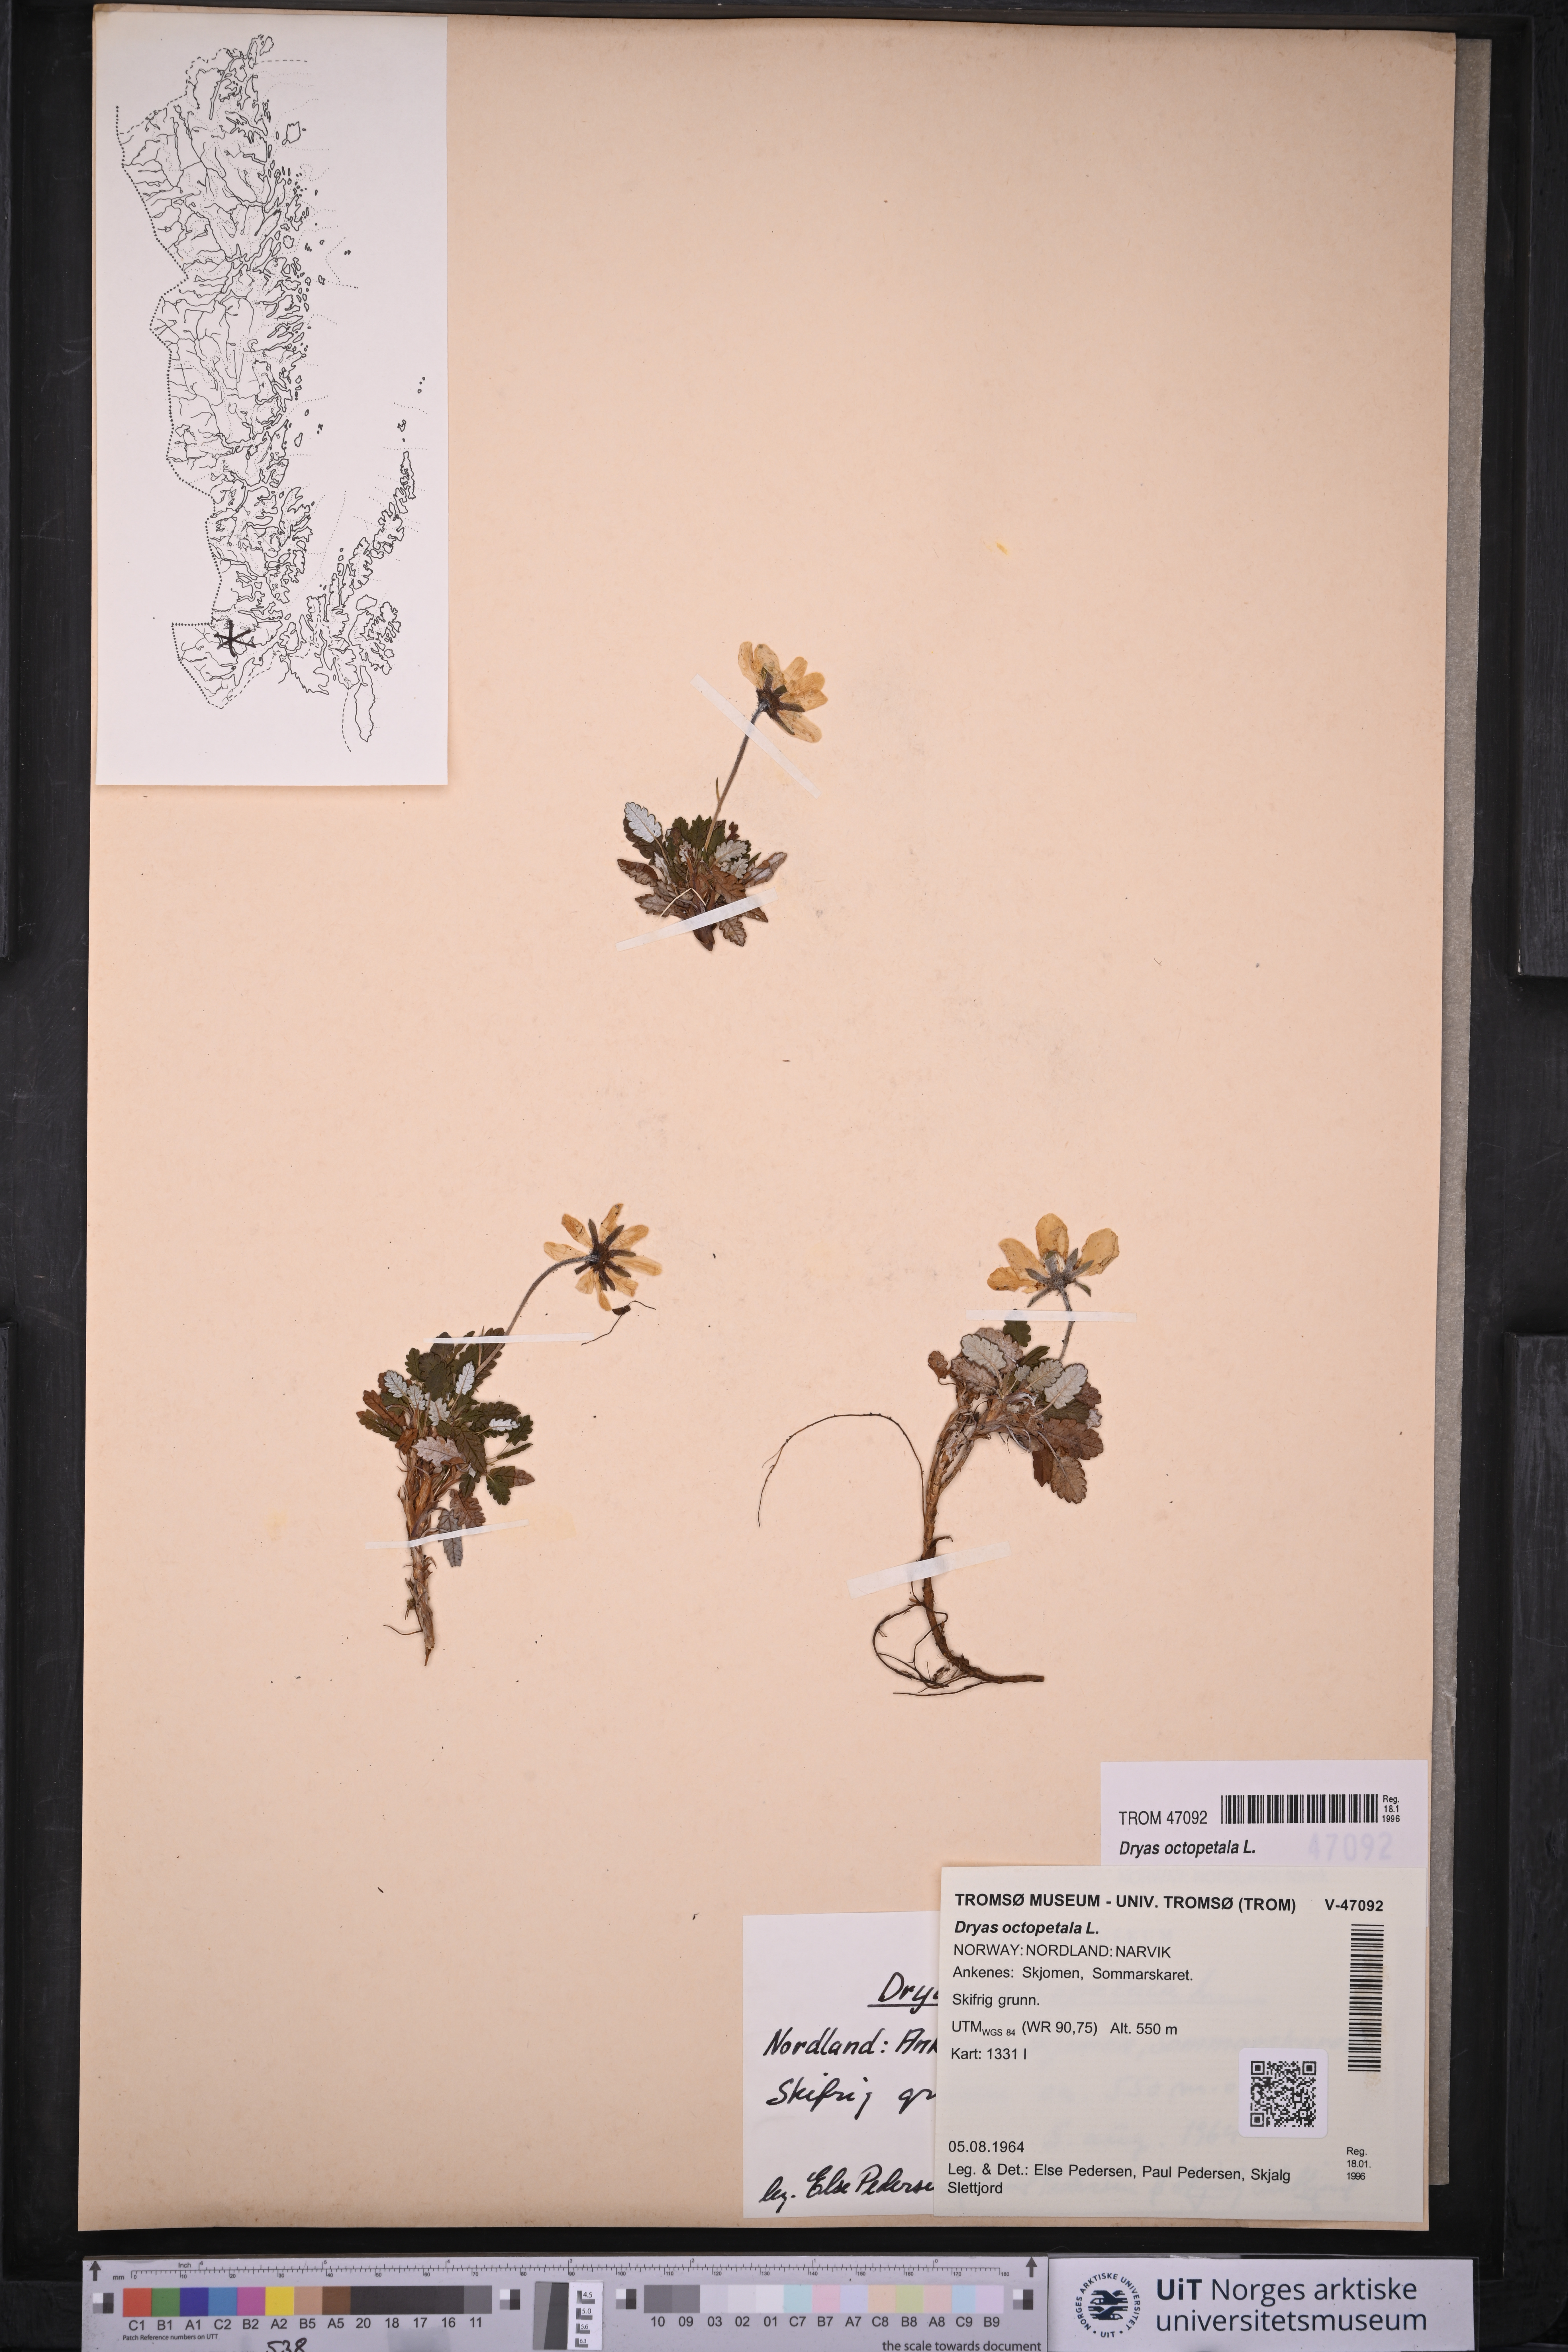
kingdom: Plantae
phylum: Tracheophyta
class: Magnoliopsida
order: Rosales
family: Rosaceae
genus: Dryas
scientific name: Dryas octopetala
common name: Eight-petal mountain-avens
